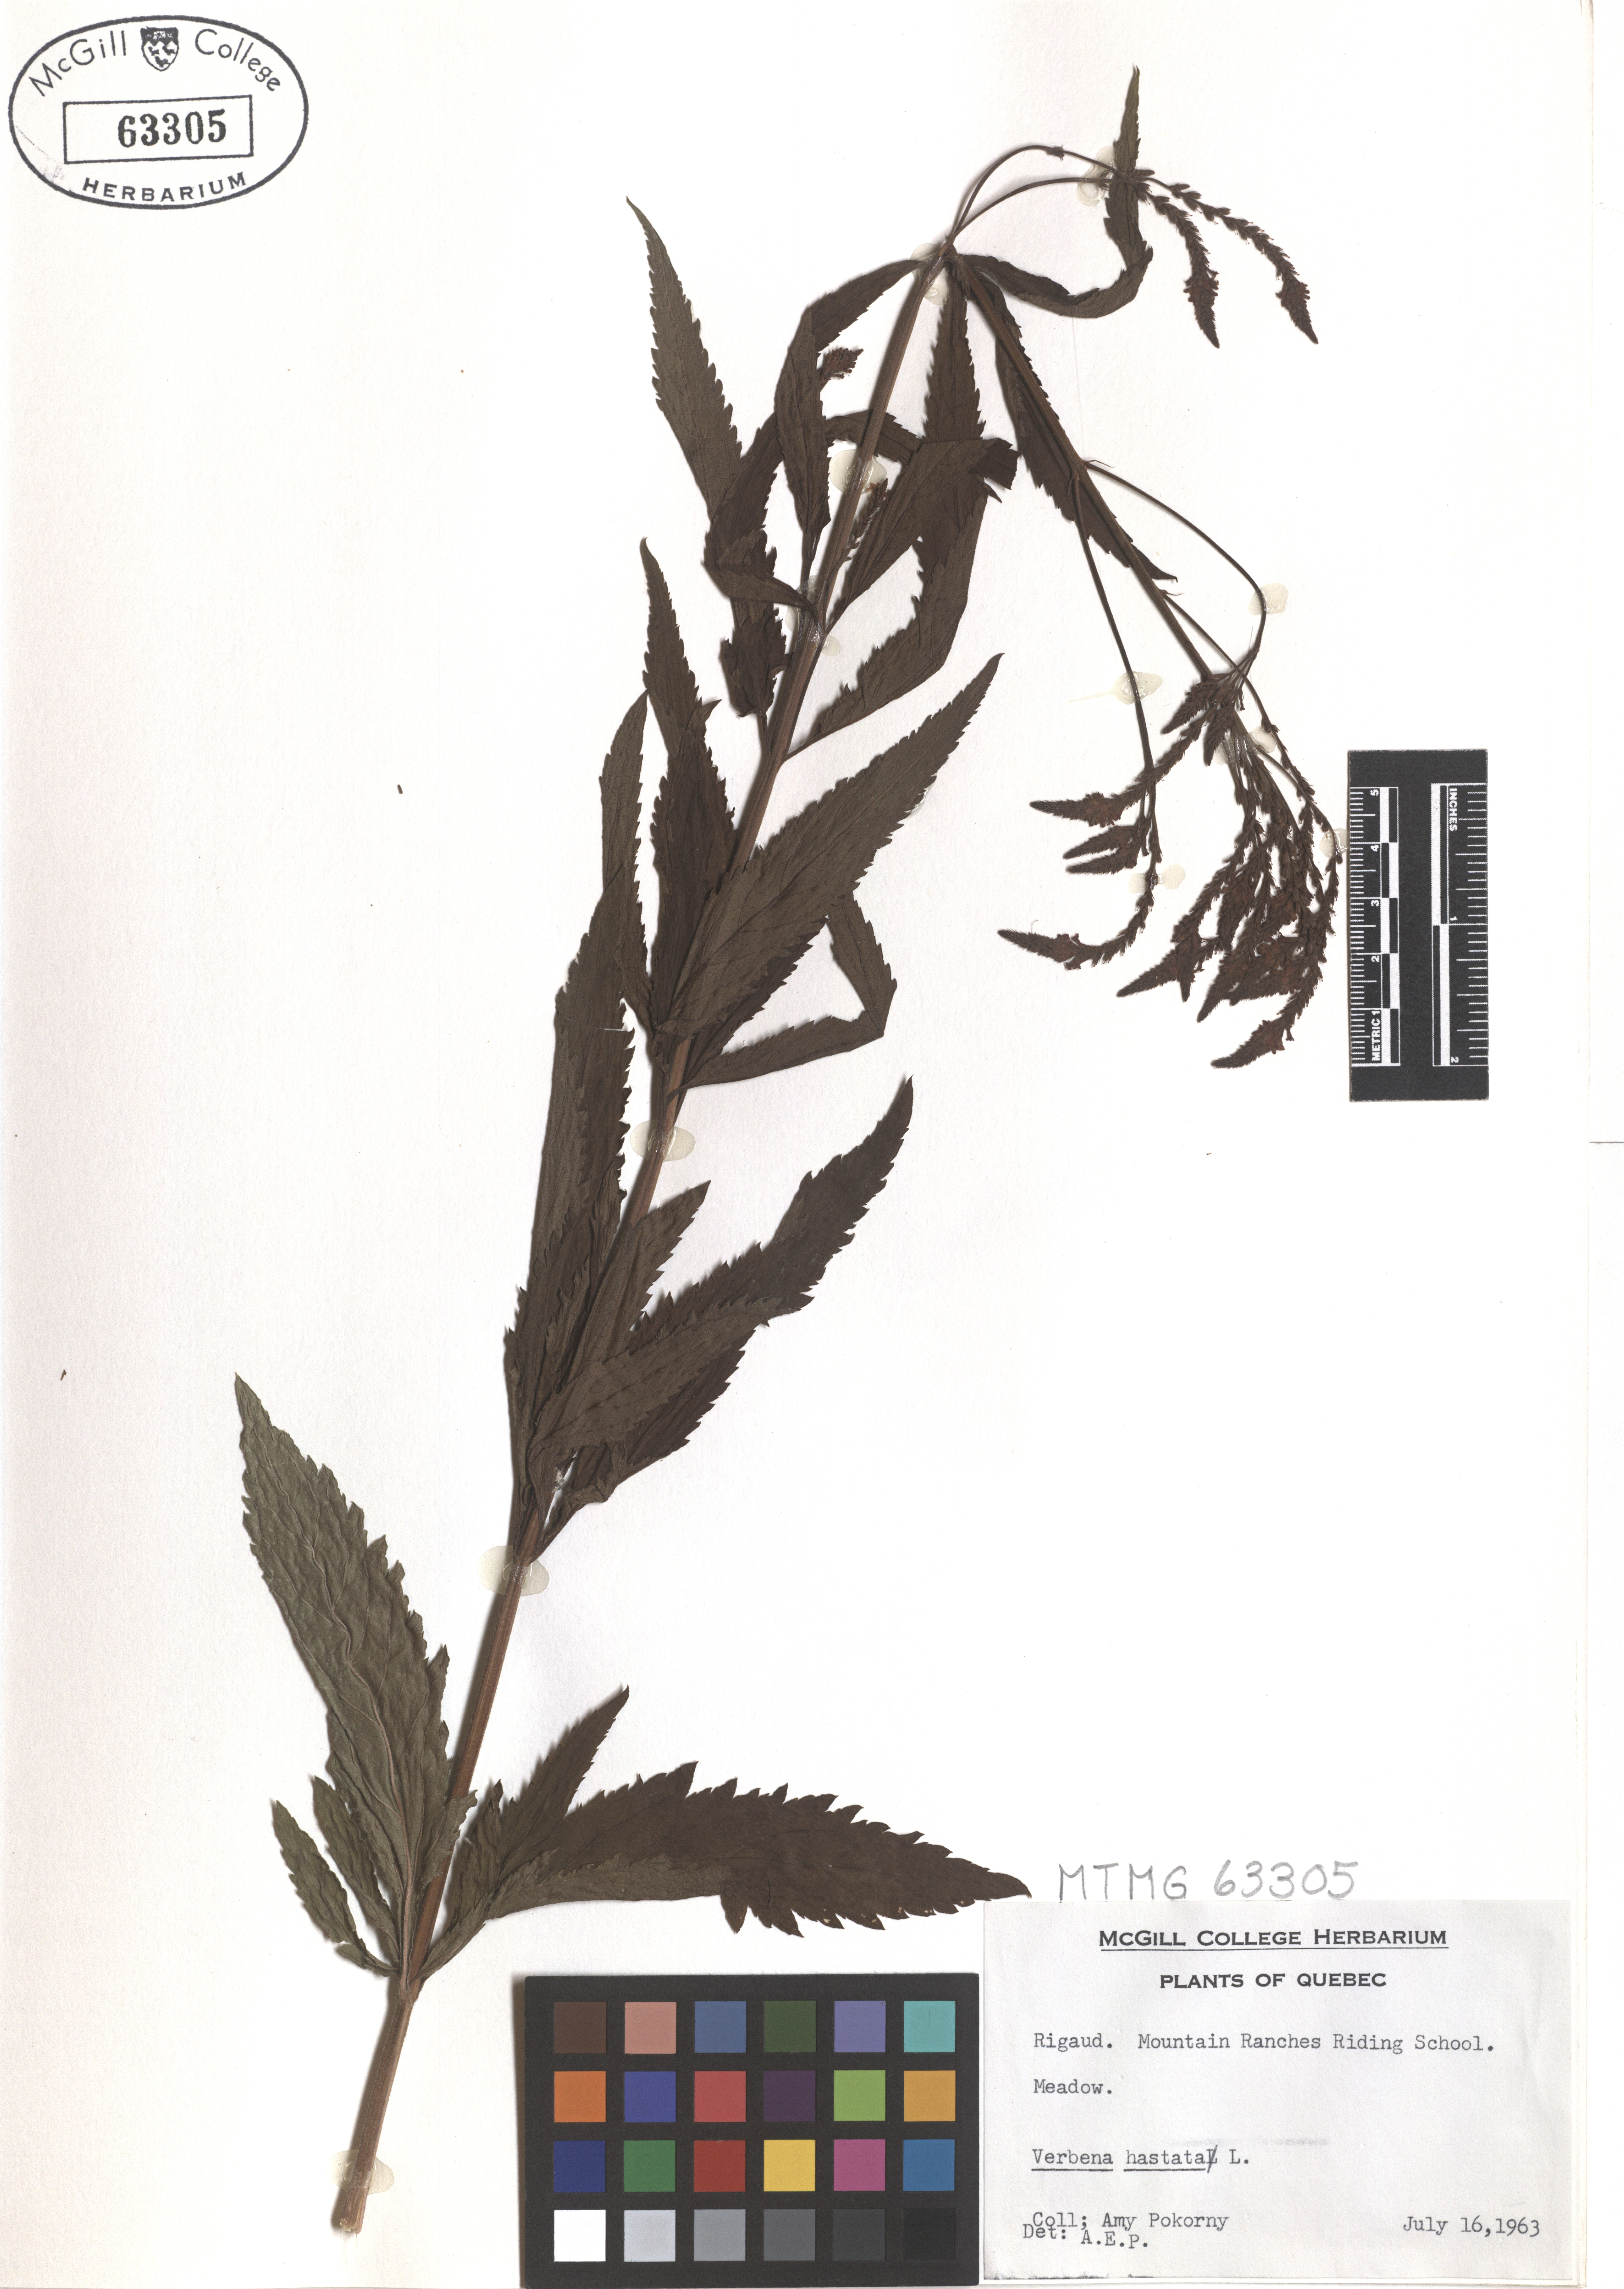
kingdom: Plantae
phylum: Tracheophyta
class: Magnoliopsida
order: Lamiales
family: Verbenaceae
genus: Verbena
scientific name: Verbena hastata
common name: American blue vervain
